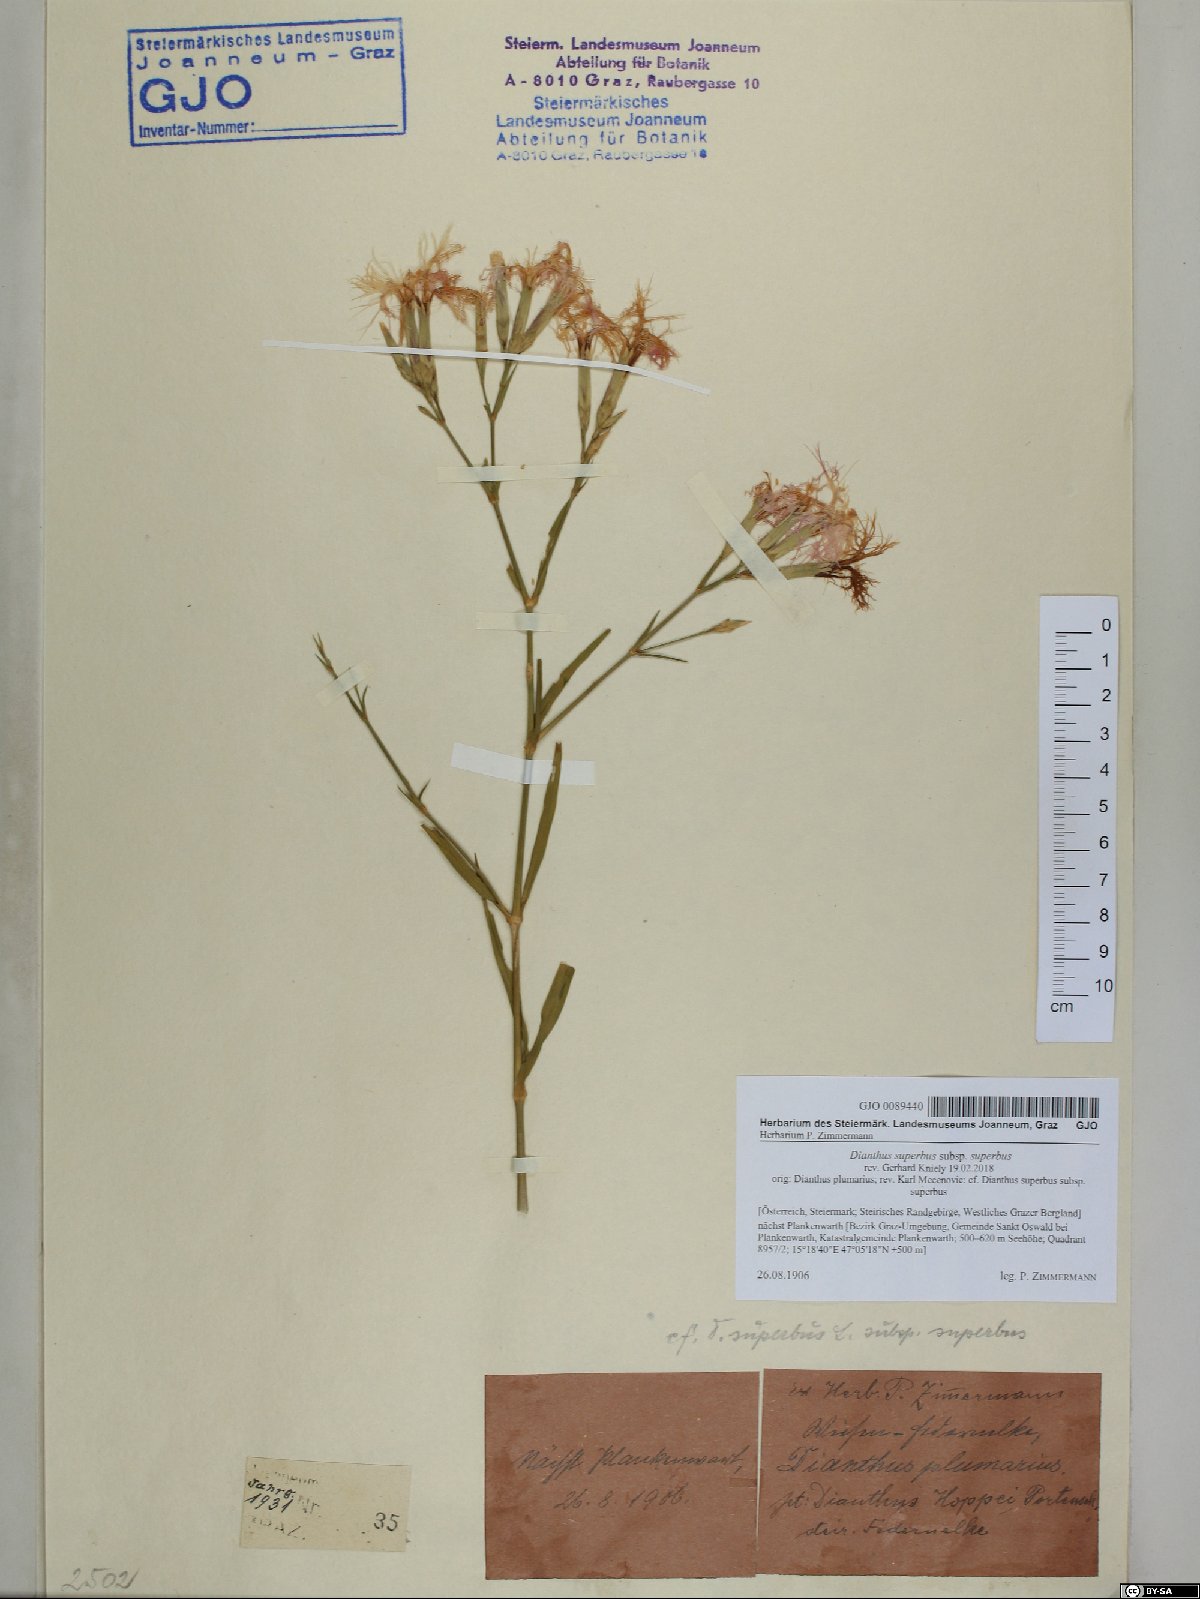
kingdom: Plantae
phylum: Tracheophyta
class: Magnoliopsida
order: Caryophyllales
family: Caryophyllaceae
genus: Dianthus
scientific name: Dianthus superbus
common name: Fringed pink
